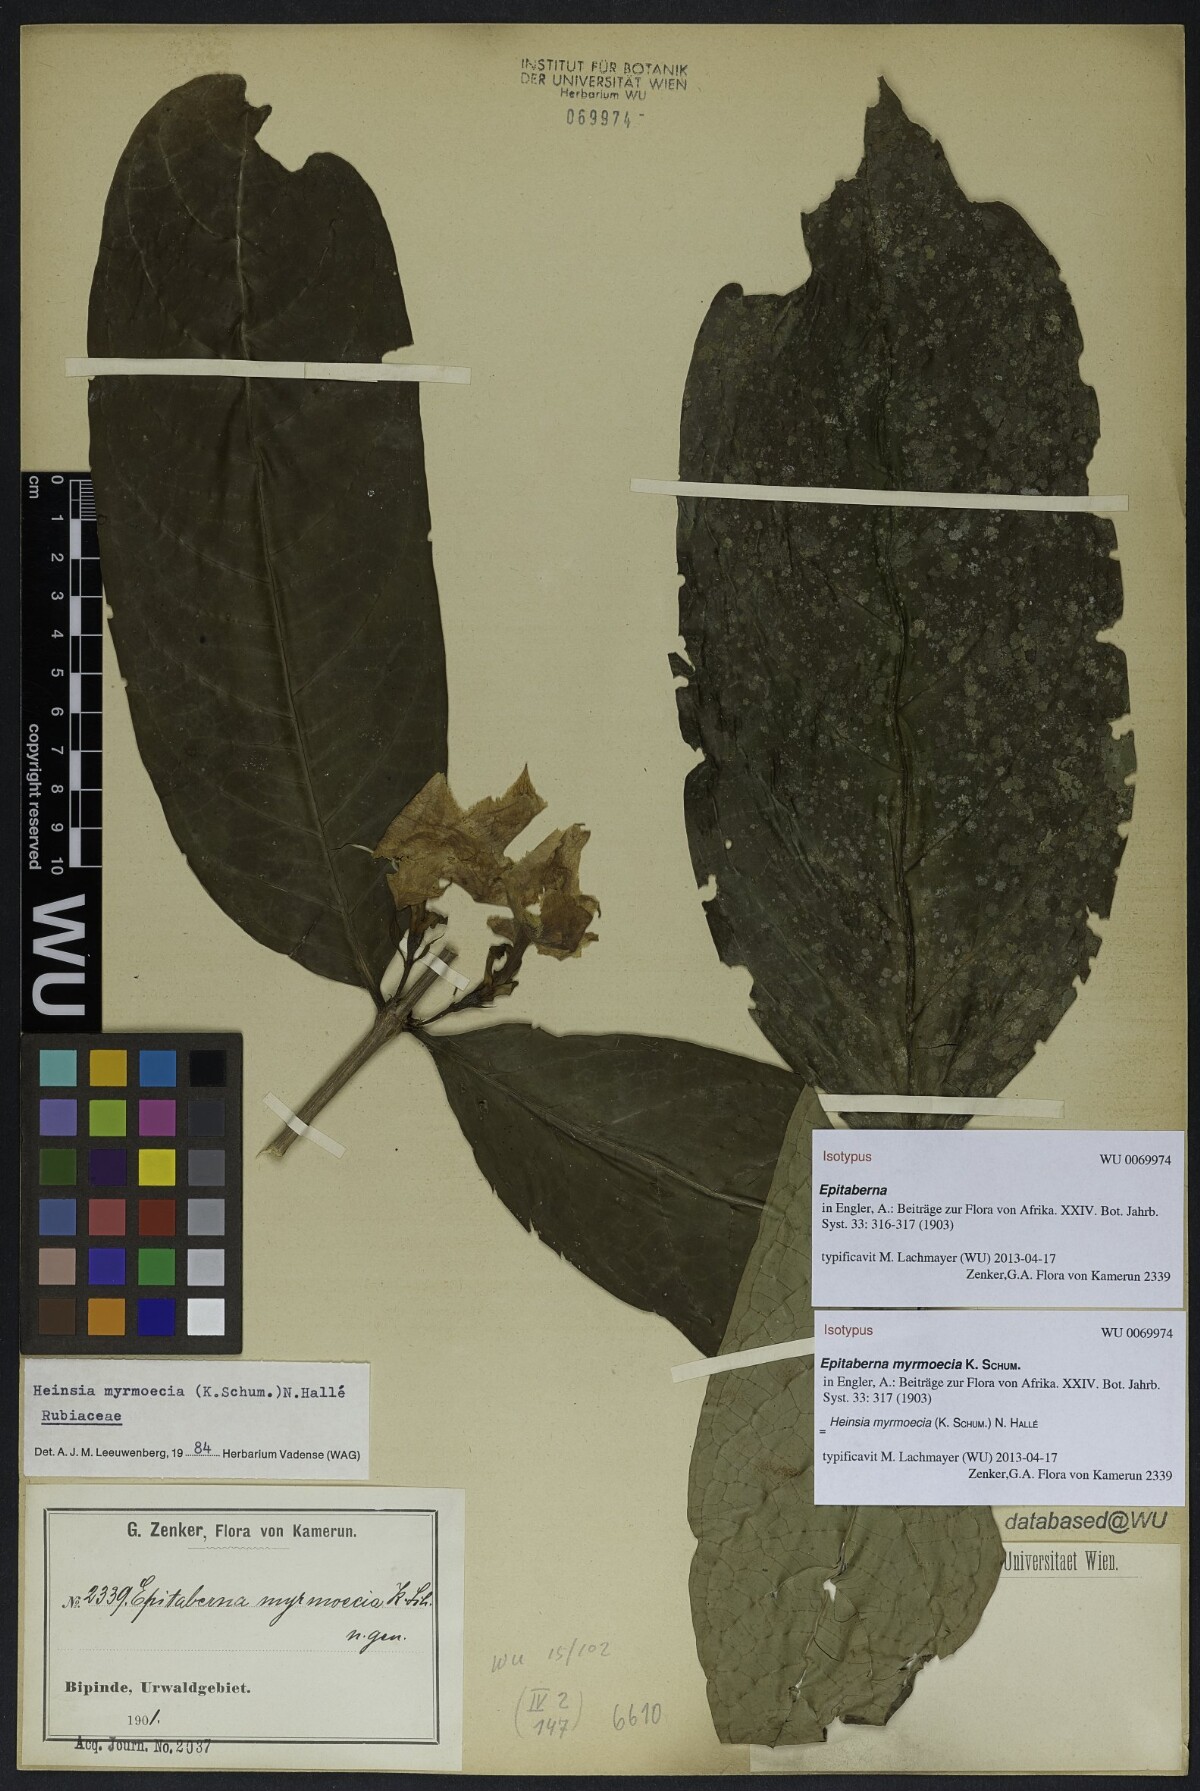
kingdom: Plantae
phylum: Tracheophyta
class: Magnoliopsida
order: Gentianales
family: Rubiaceae
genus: Heinsia
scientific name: Heinsia myrmoecia
